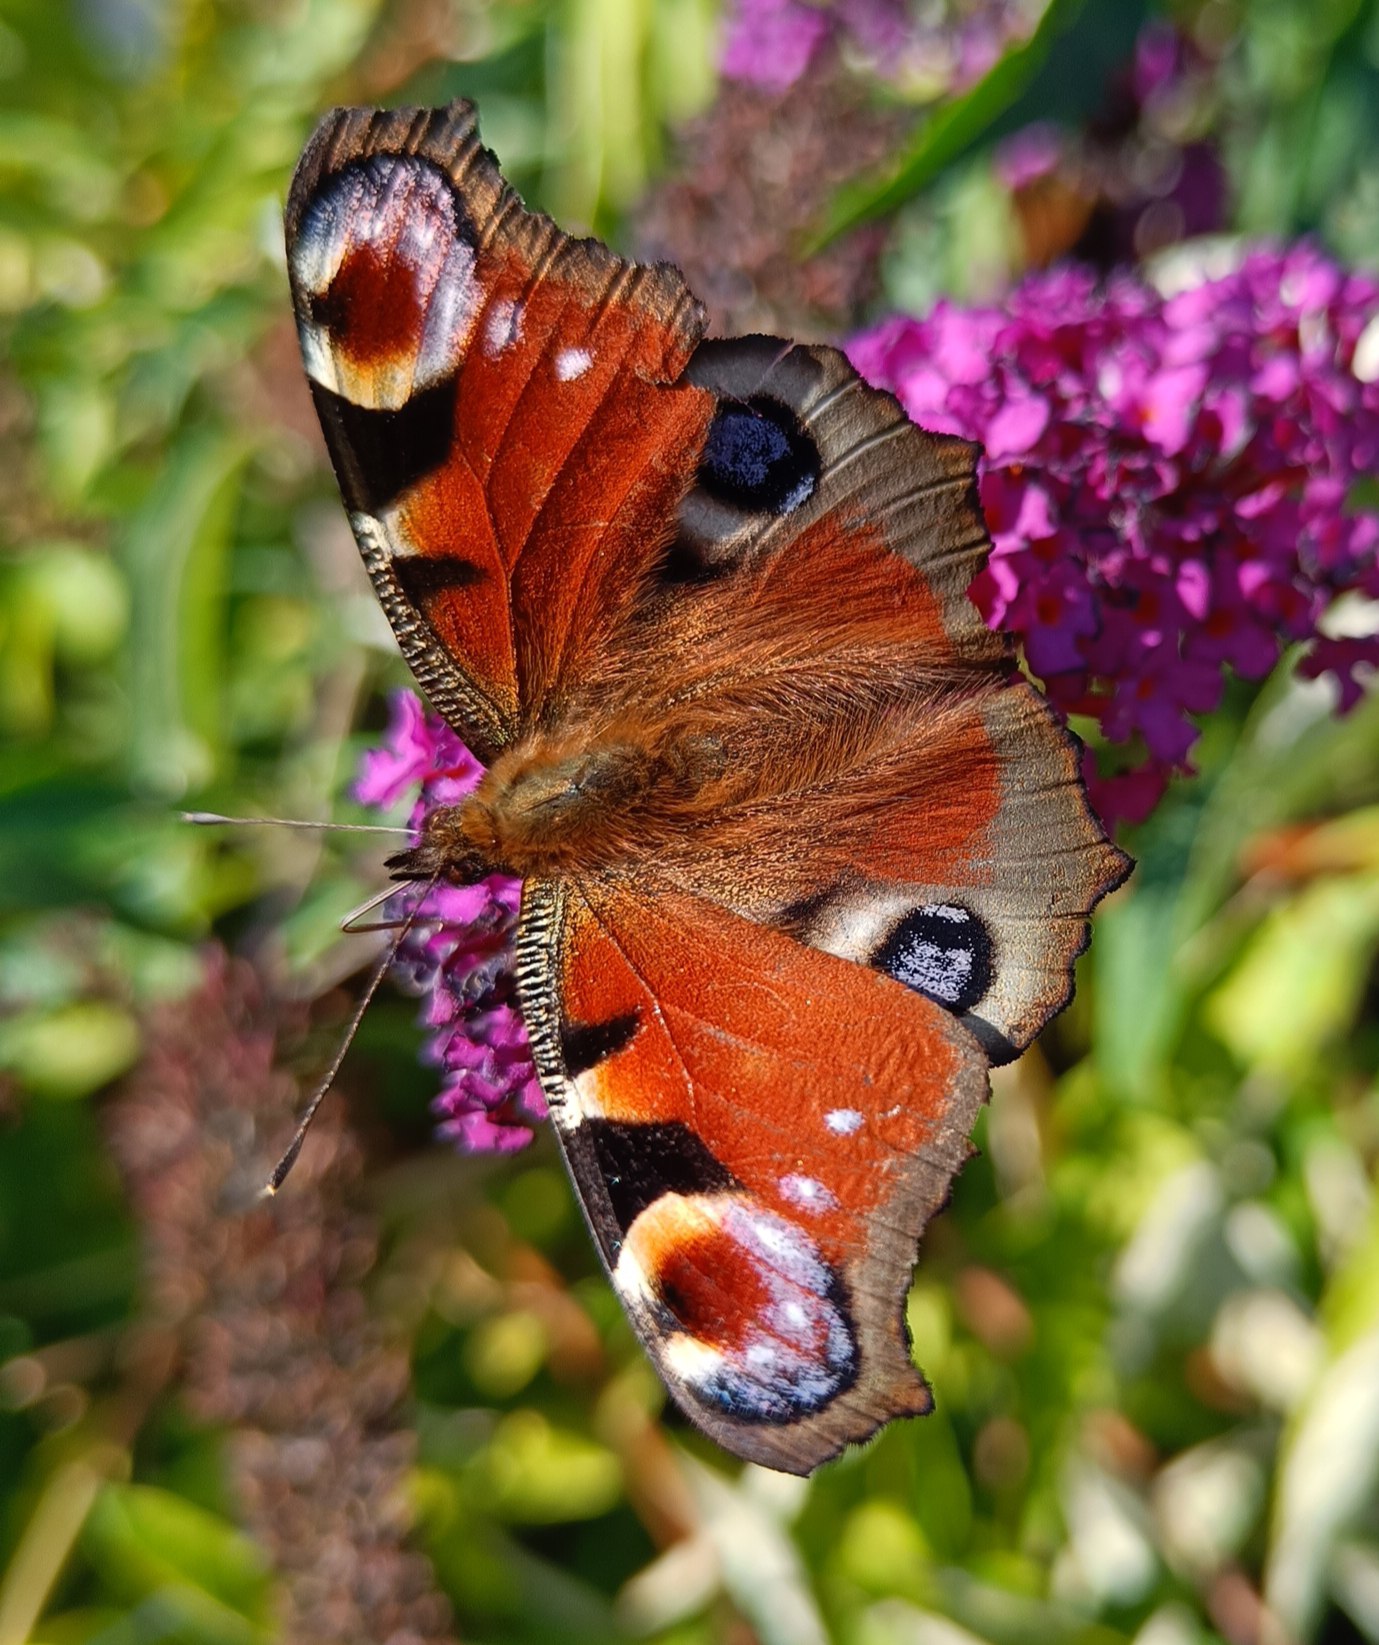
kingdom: Animalia
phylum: Arthropoda
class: Insecta
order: Lepidoptera
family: Nymphalidae
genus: Aglais
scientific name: Aglais io
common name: Dagpåfugleøje
